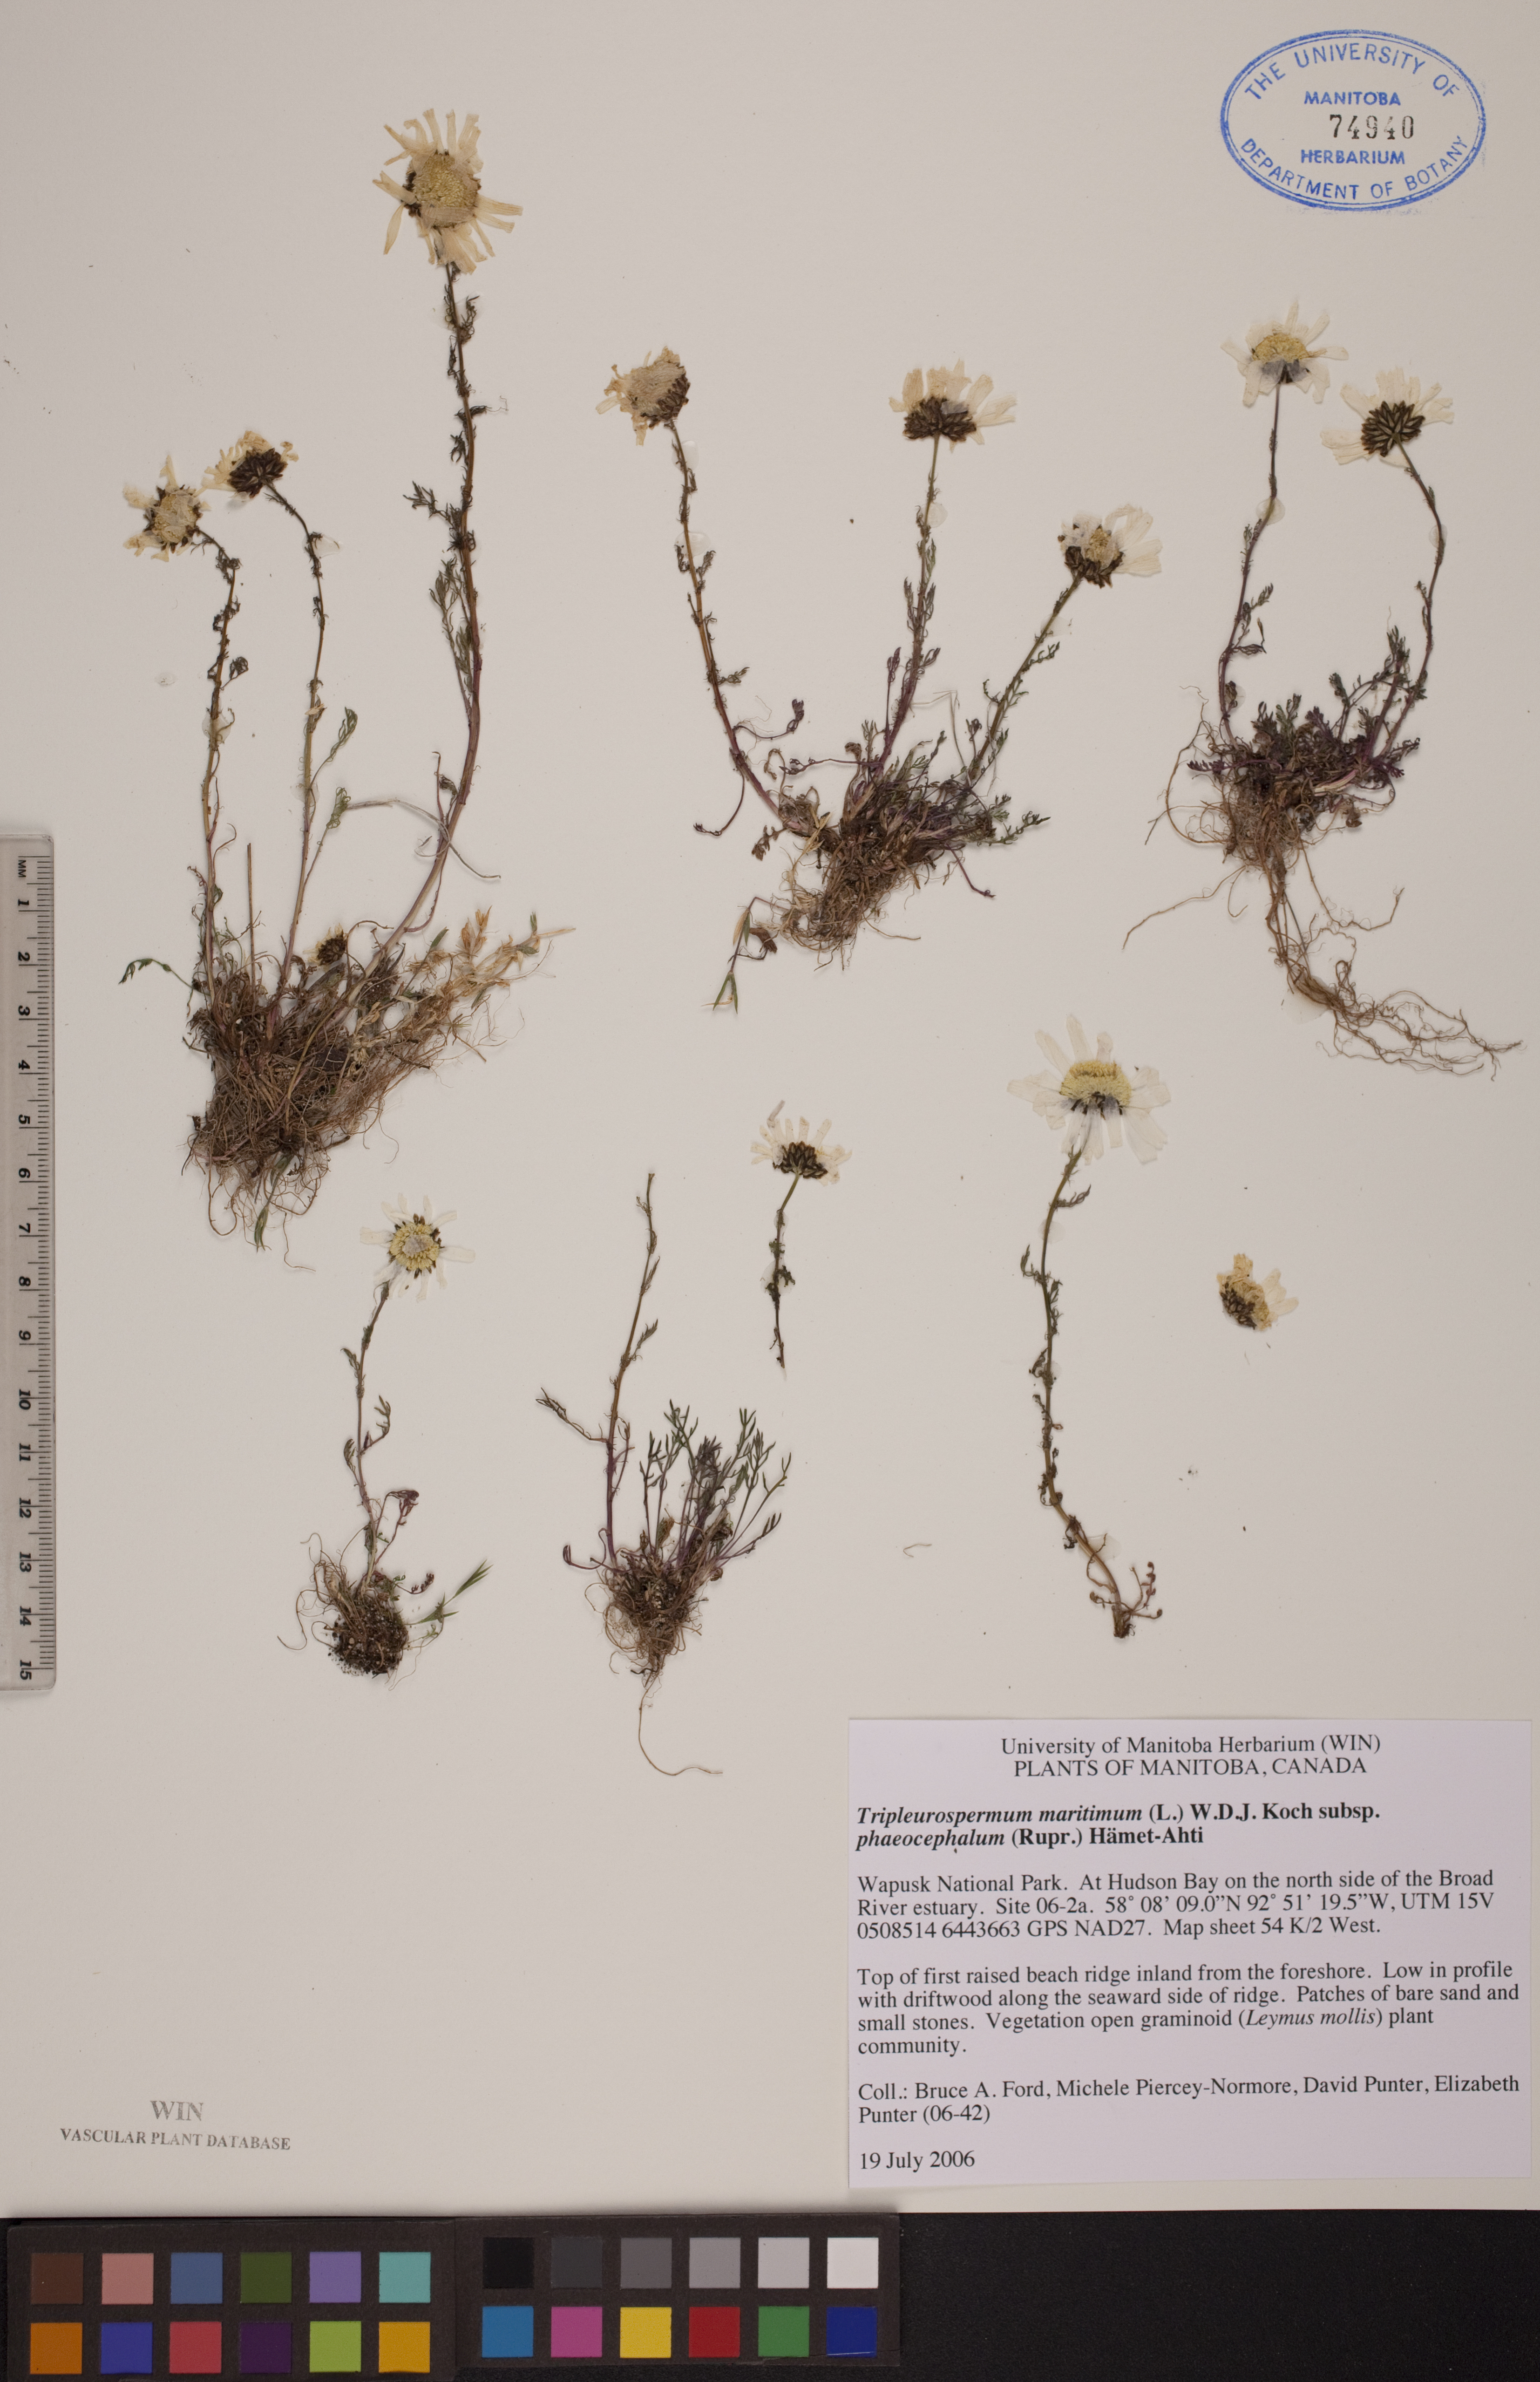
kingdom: Plantae
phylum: Tracheophyta
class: Magnoliopsida
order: Asterales
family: Asteraceae
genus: Tripleurospermum
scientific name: Tripleurospermum hookeri
